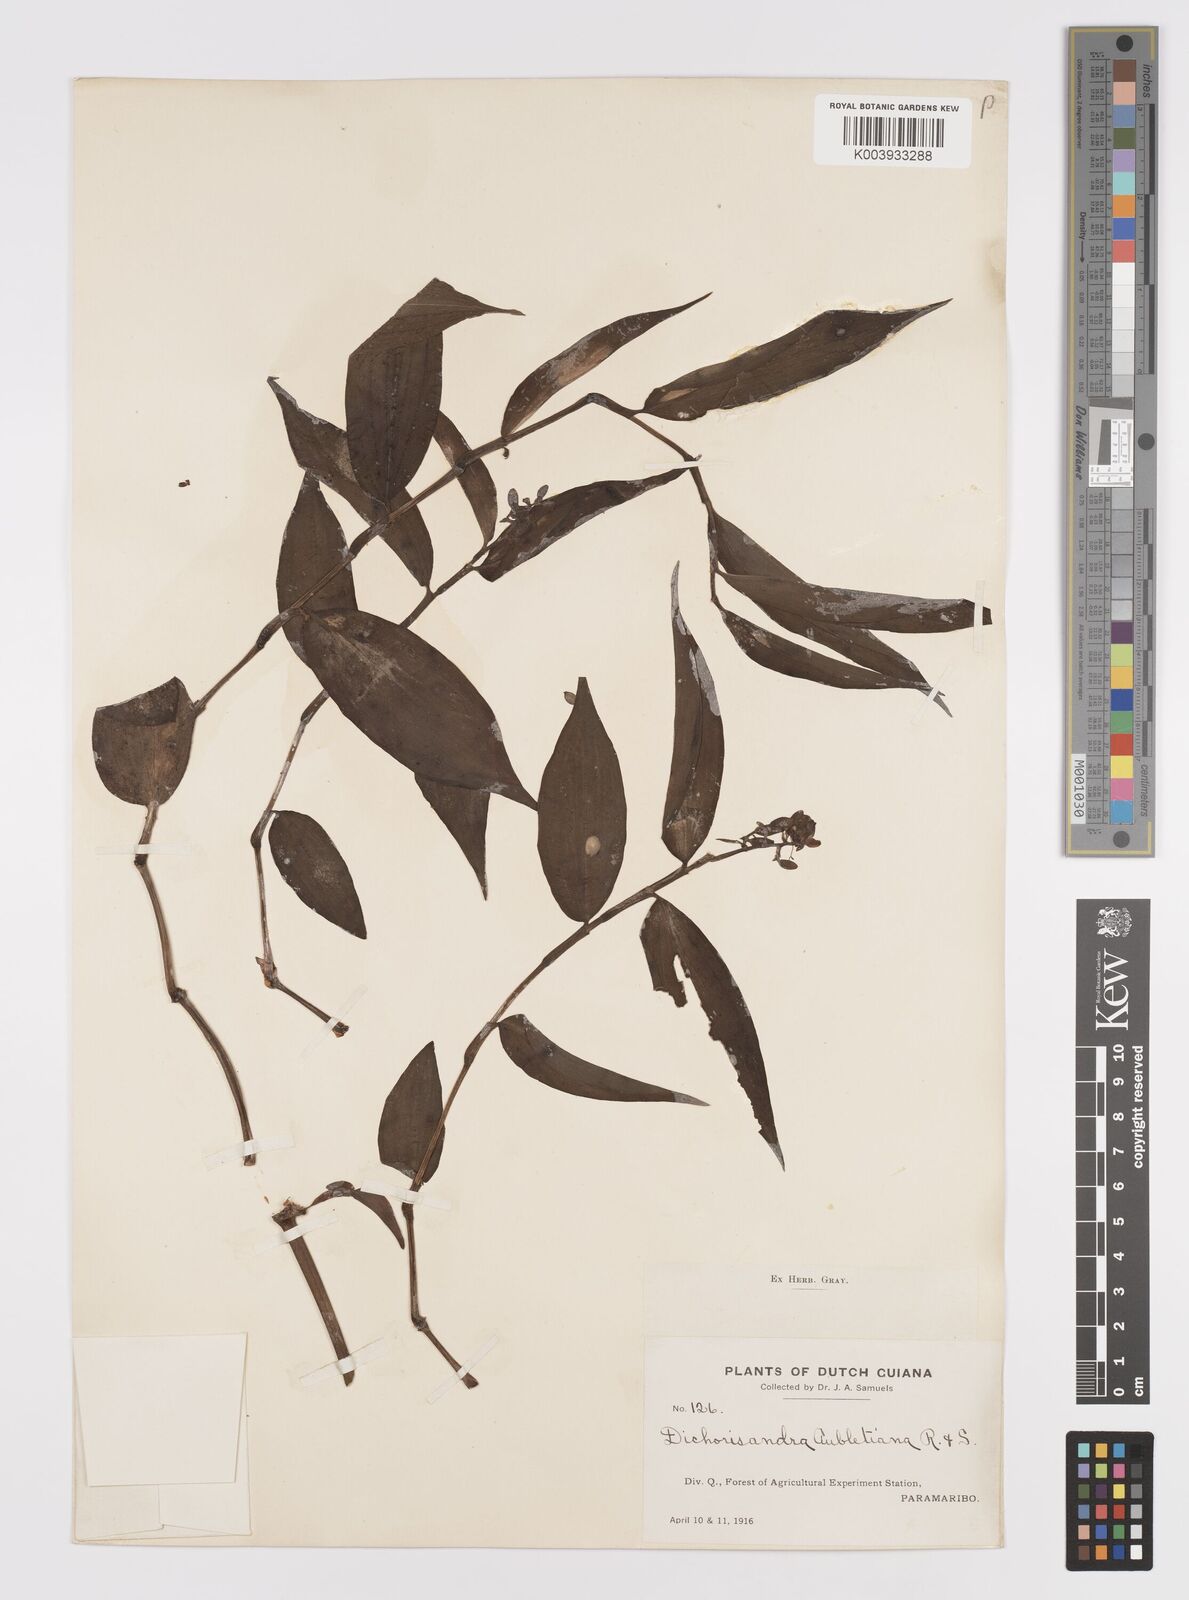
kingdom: Plantae
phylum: Tracheophyta
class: Liliopsida
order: Commelinales
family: Commelinaceae
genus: Dichorisandra
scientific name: Dichorisandra hexandra
